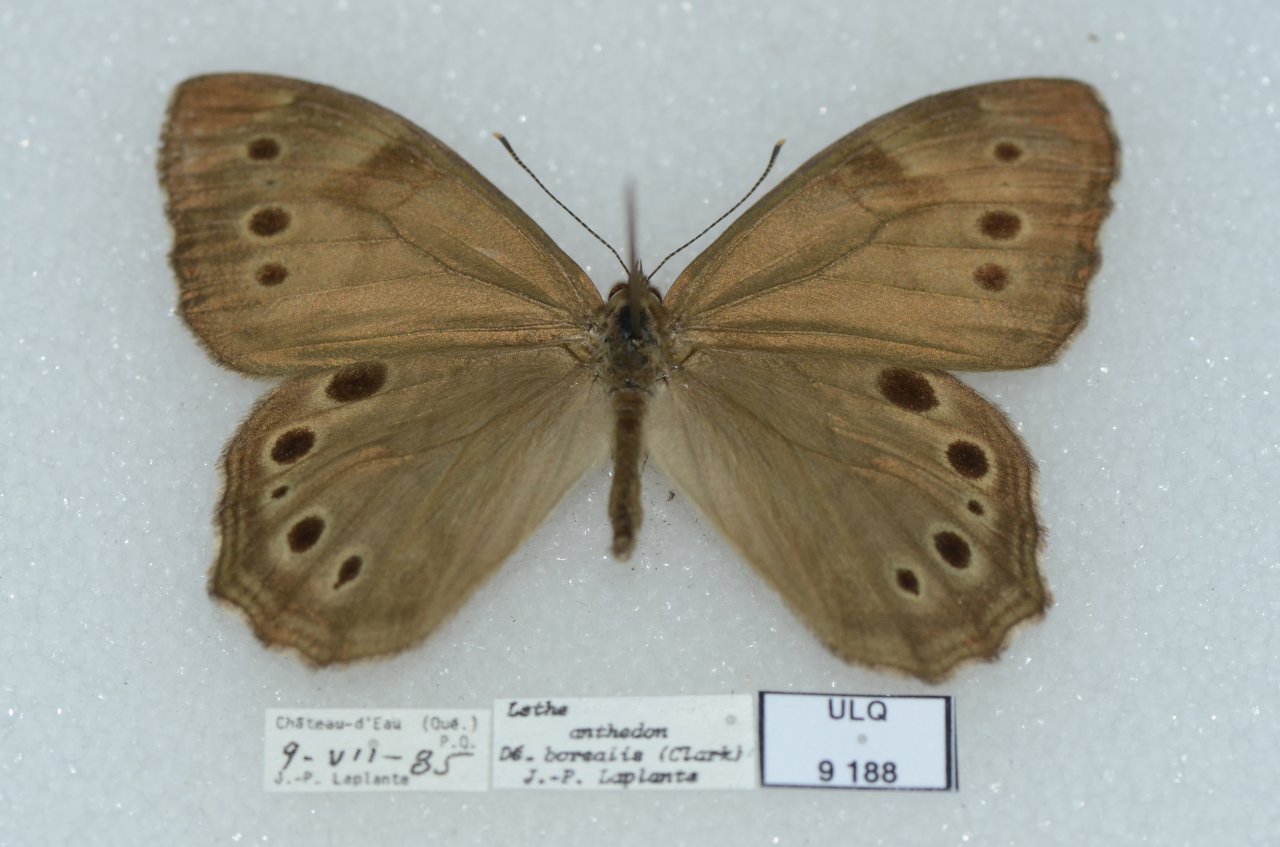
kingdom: Animalia
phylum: Arthropoda
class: Insecta
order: Lepidoptera
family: Nymphalidae
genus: Lethe
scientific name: Lethe anthedon
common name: Northern Pearly-Eye
